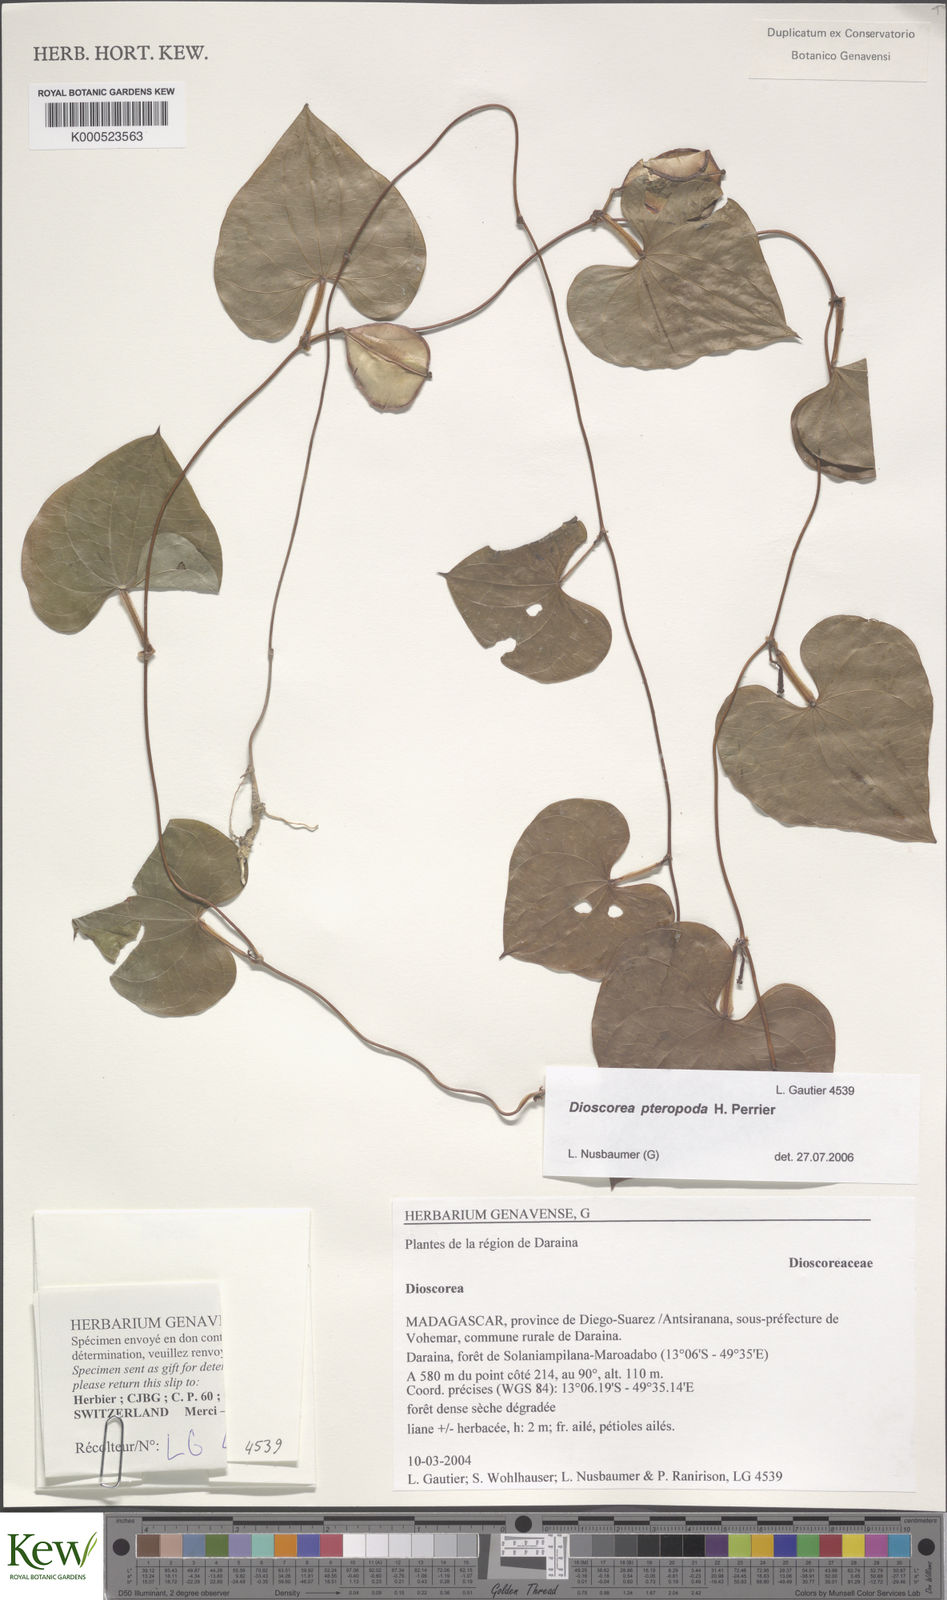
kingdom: Plantae
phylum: Tracheophyta
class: Liliopsida
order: Dioscoreales
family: Dioscoreaceae
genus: Dioscorea
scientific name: Dioscorea pteropoda
